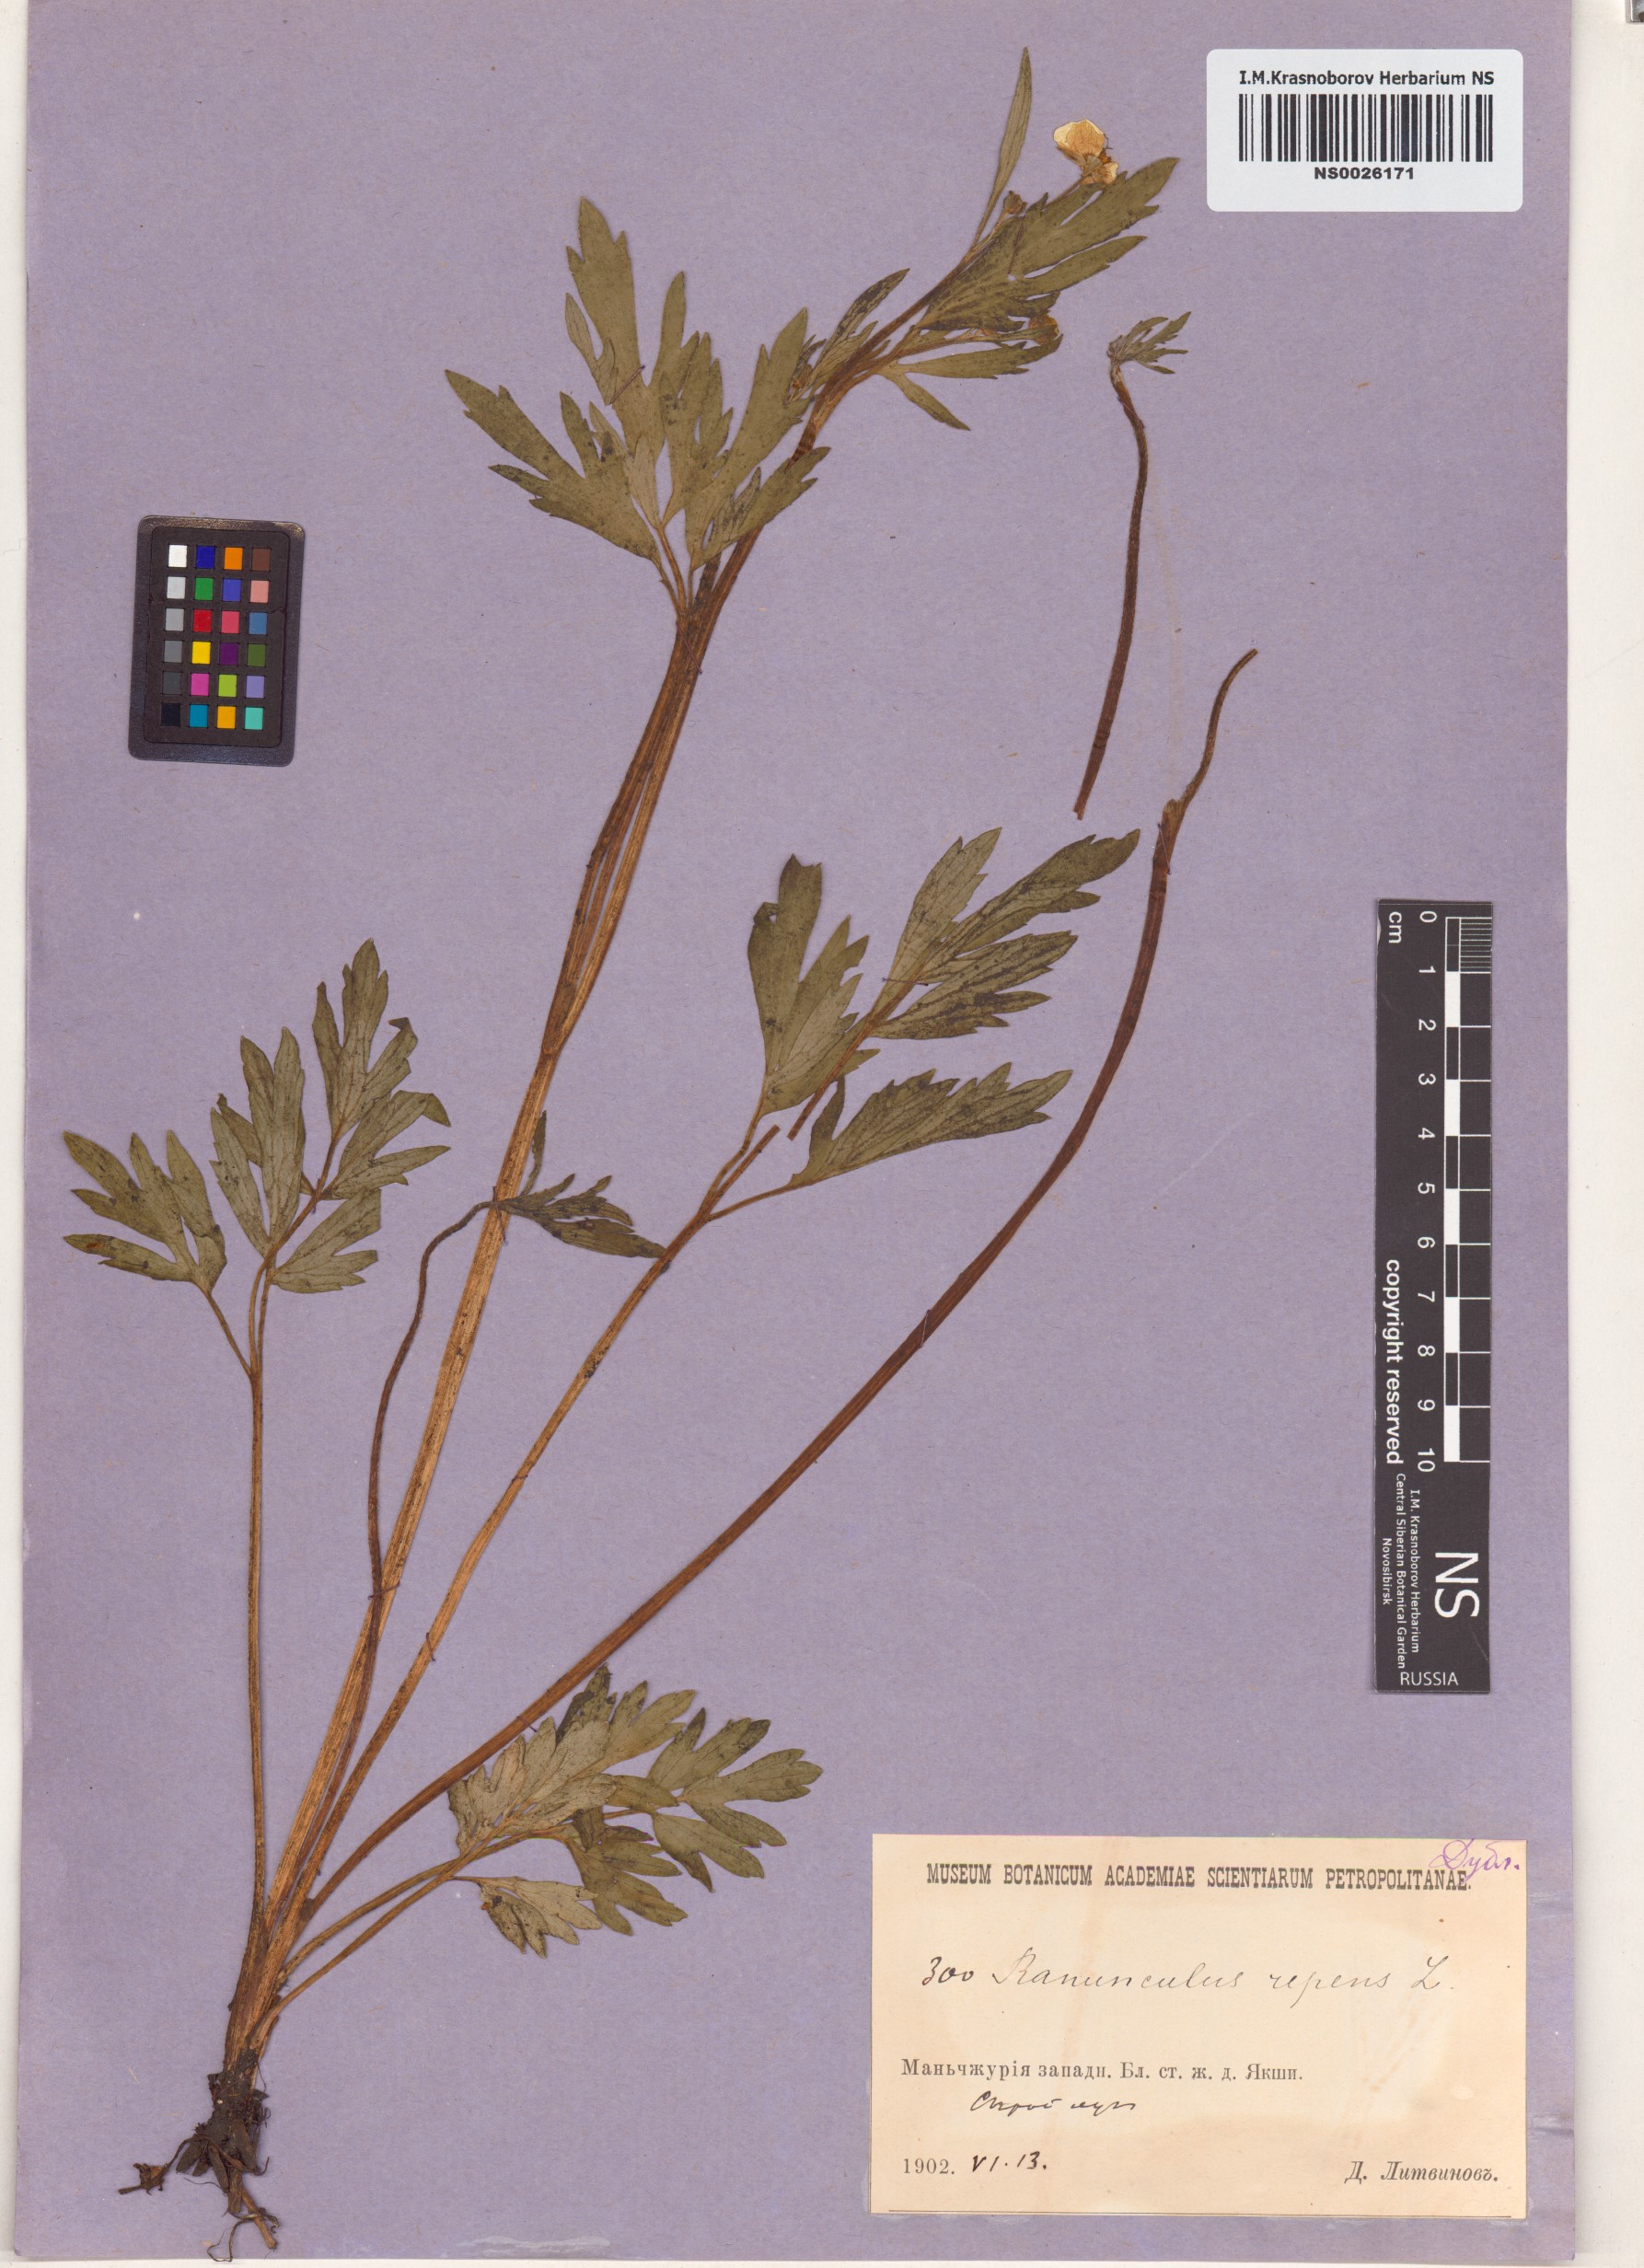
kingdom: Plantae
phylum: Tracheophyta
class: Magnoliopsida
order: Ranunculales
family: Ranunculaceae
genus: Ranunculus
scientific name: Ranunculus repens
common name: Creeping buttercup
